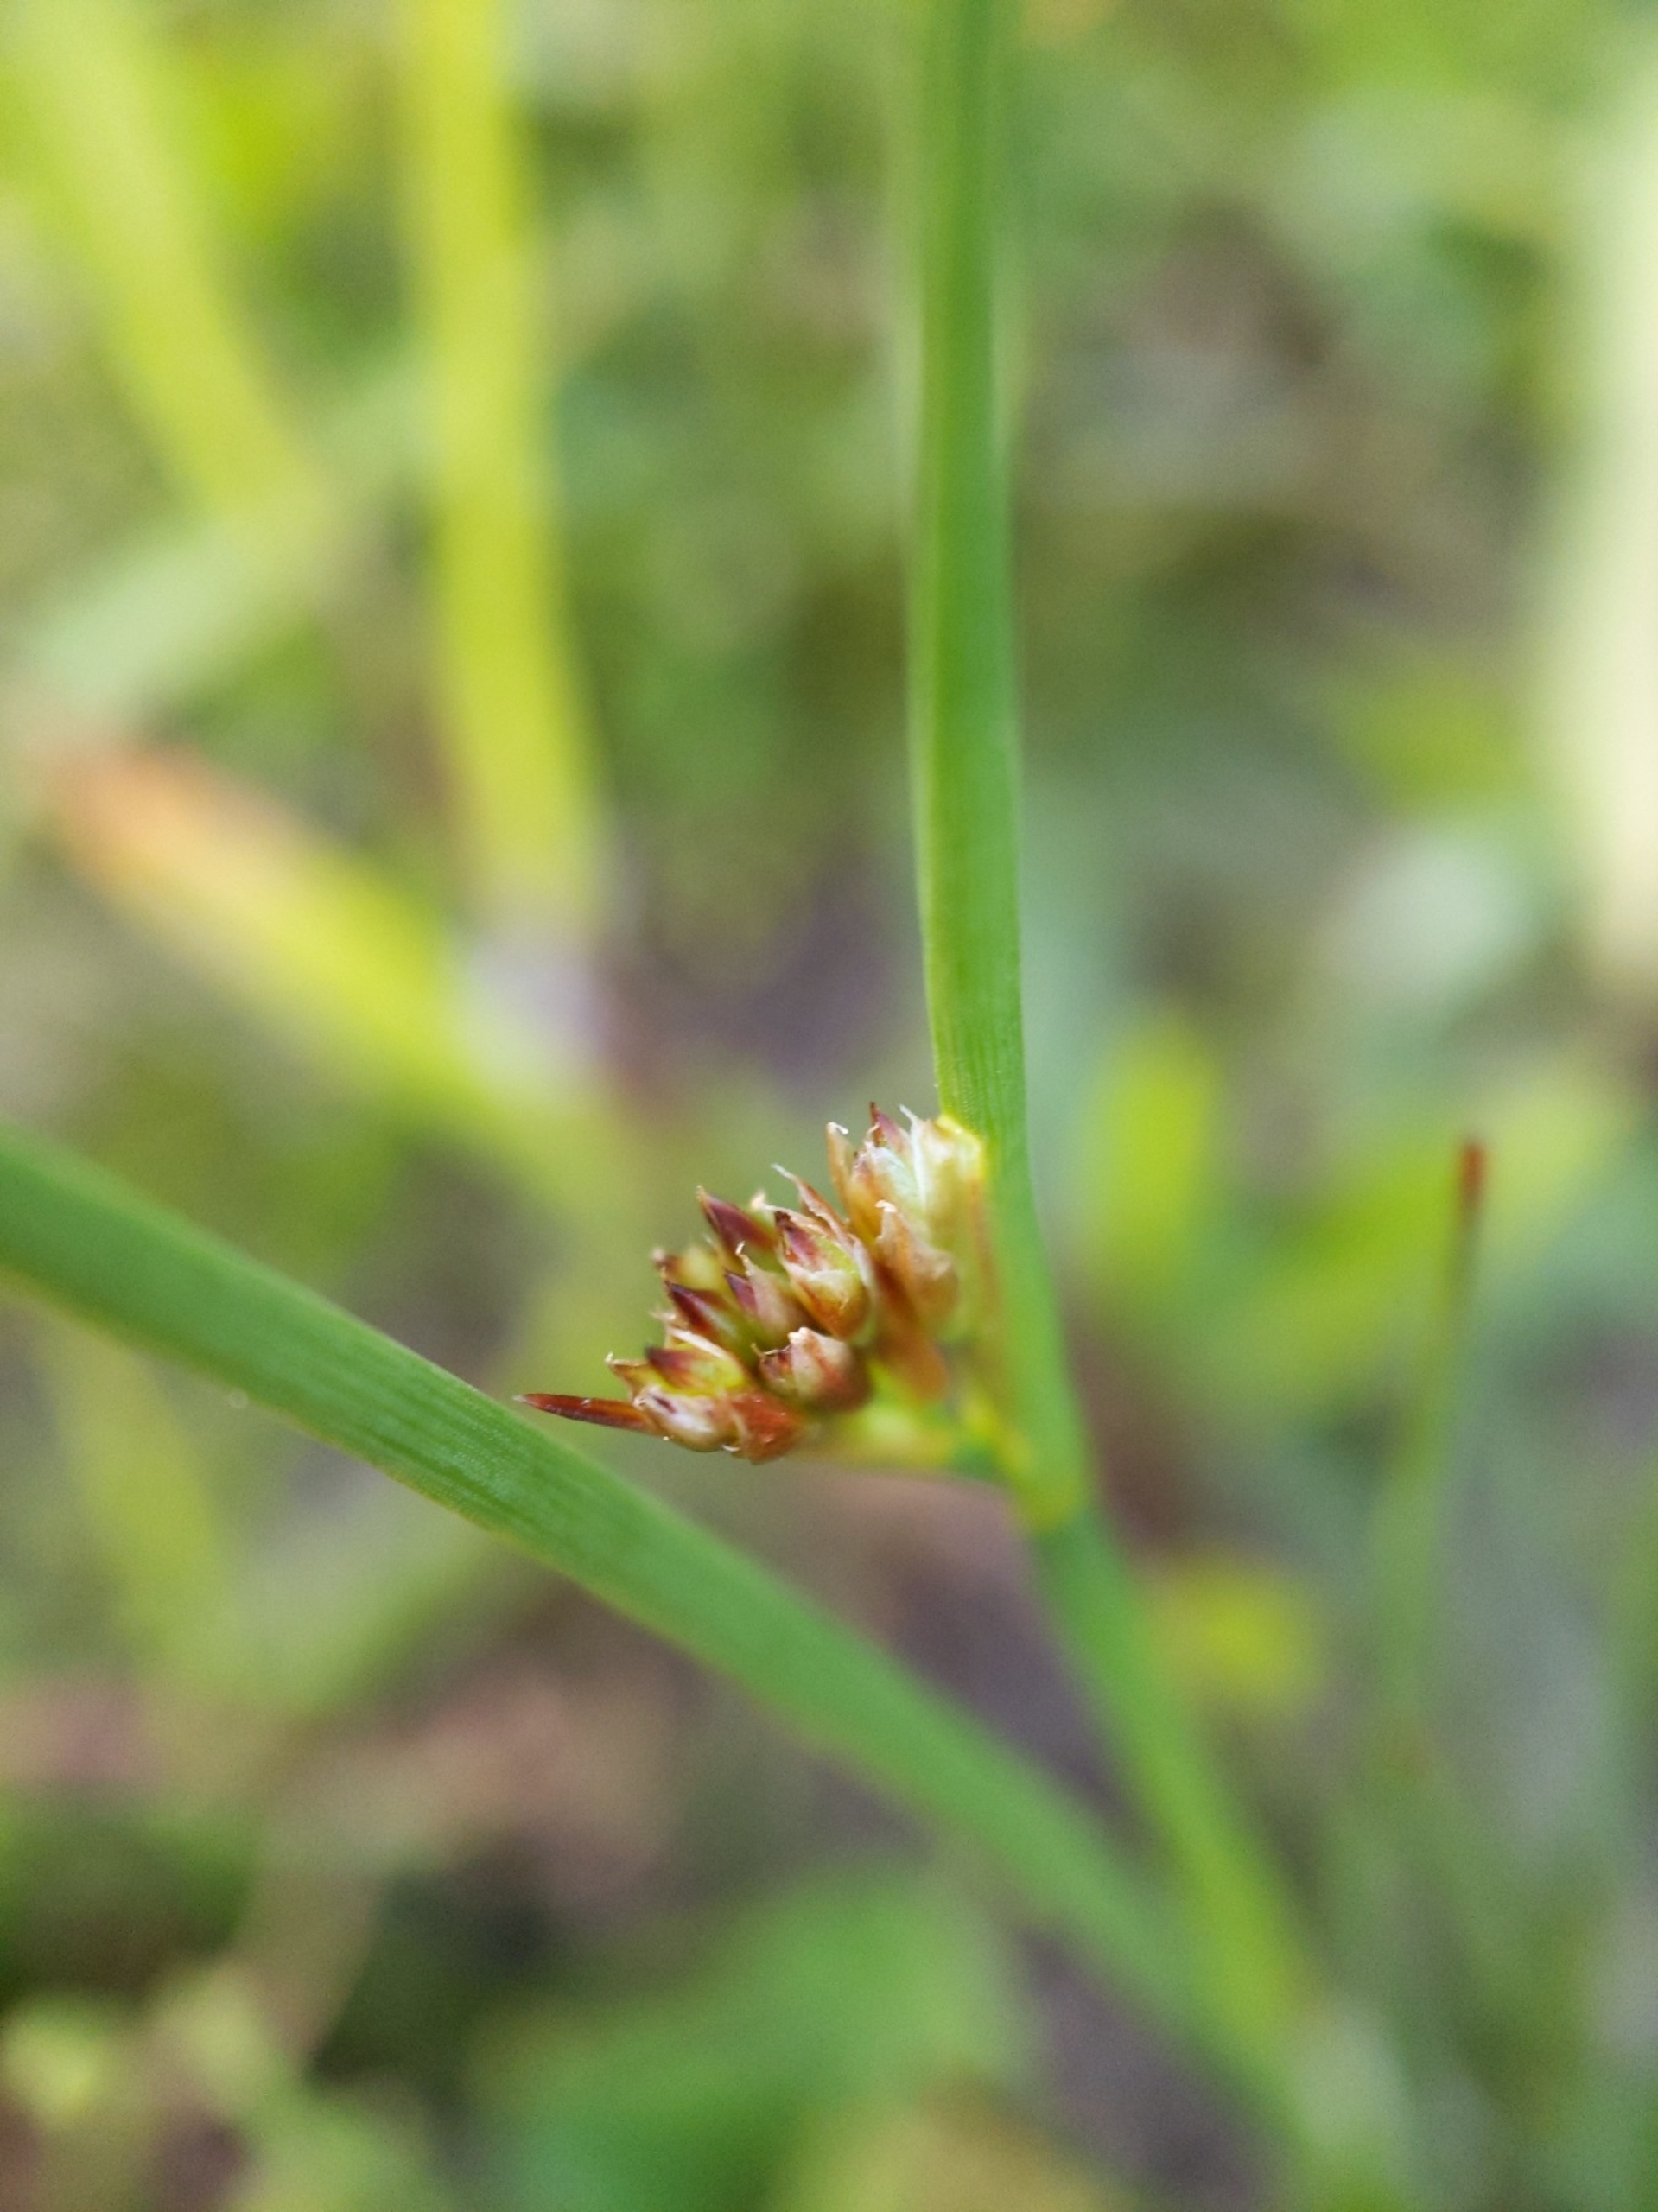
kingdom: Plantae
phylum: Tracheophyta
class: Liliopsida
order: Poales
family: Juncaceae
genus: Juncus
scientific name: Juncus articulatus
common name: Glanskapslet siv
